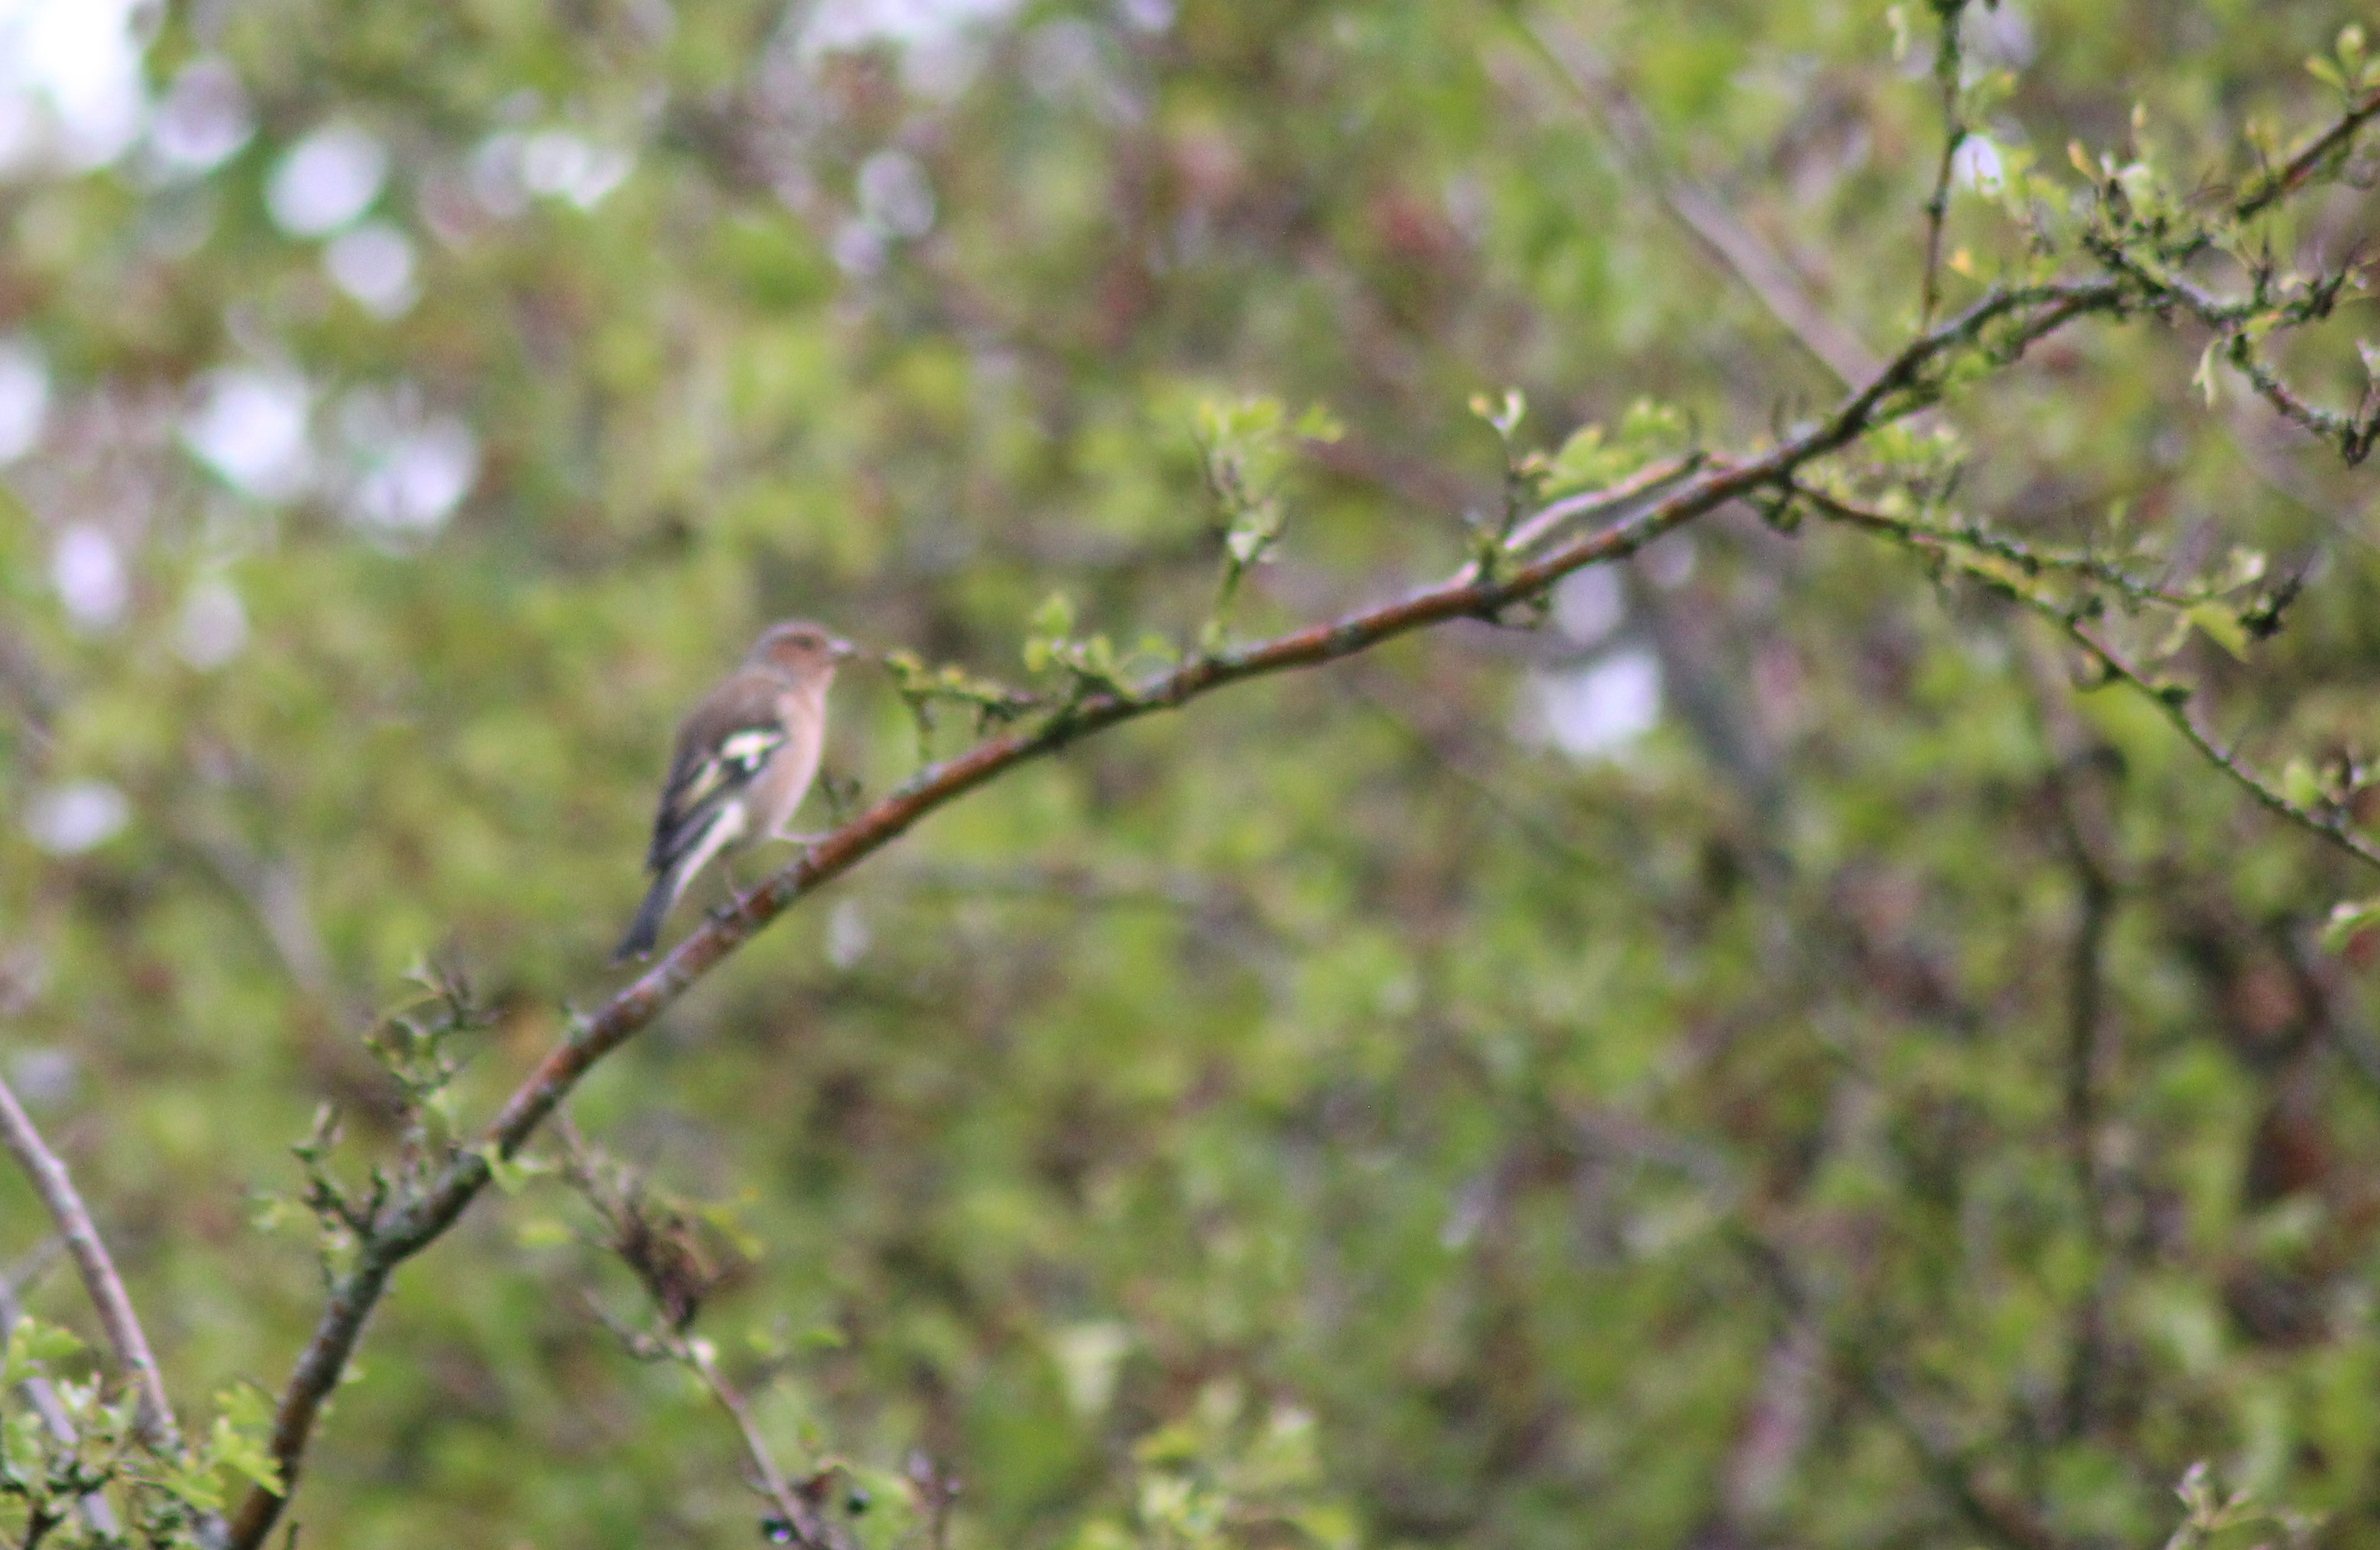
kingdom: Animalia
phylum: Chordata
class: Aves
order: Passeriformes
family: Fringillidae
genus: Fringilla
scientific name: Fringilla coelebs
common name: Bogfinke
